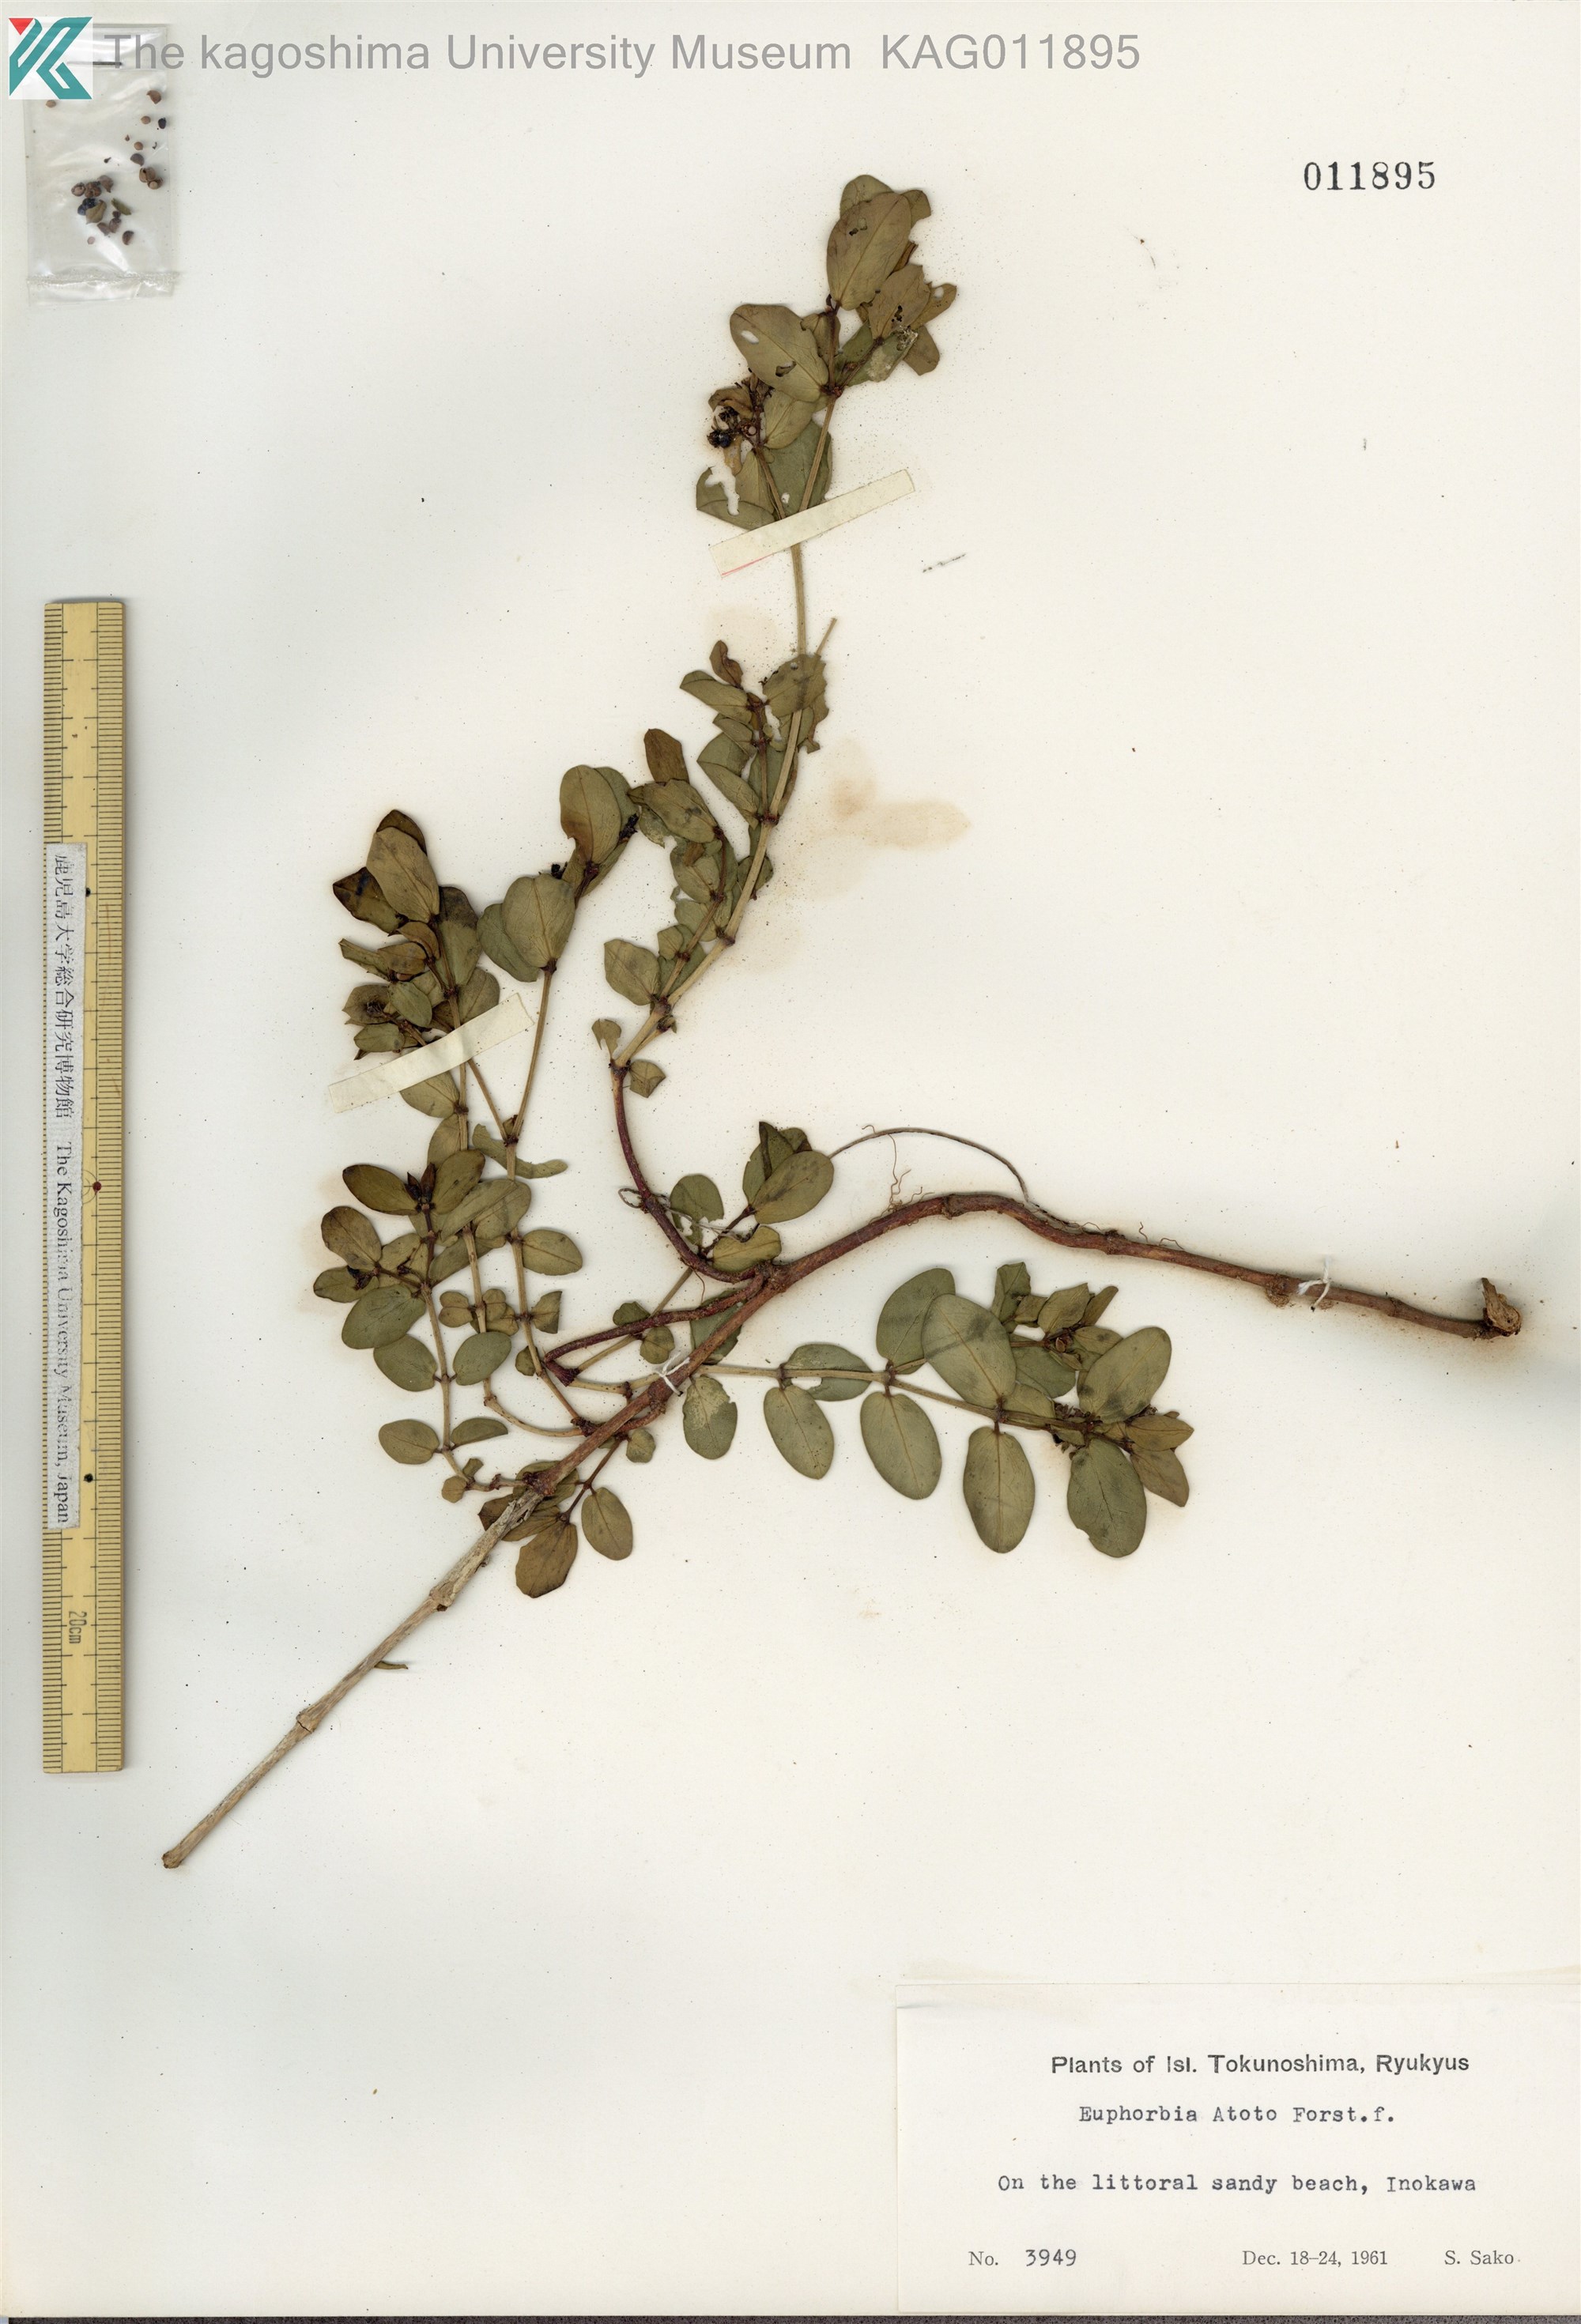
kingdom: Plantae
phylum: Tracheophyta
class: Magnoliopsida
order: Malpighiales
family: Euphorbiaceae
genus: Euphorbia
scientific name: Euphorbia chamissonis
